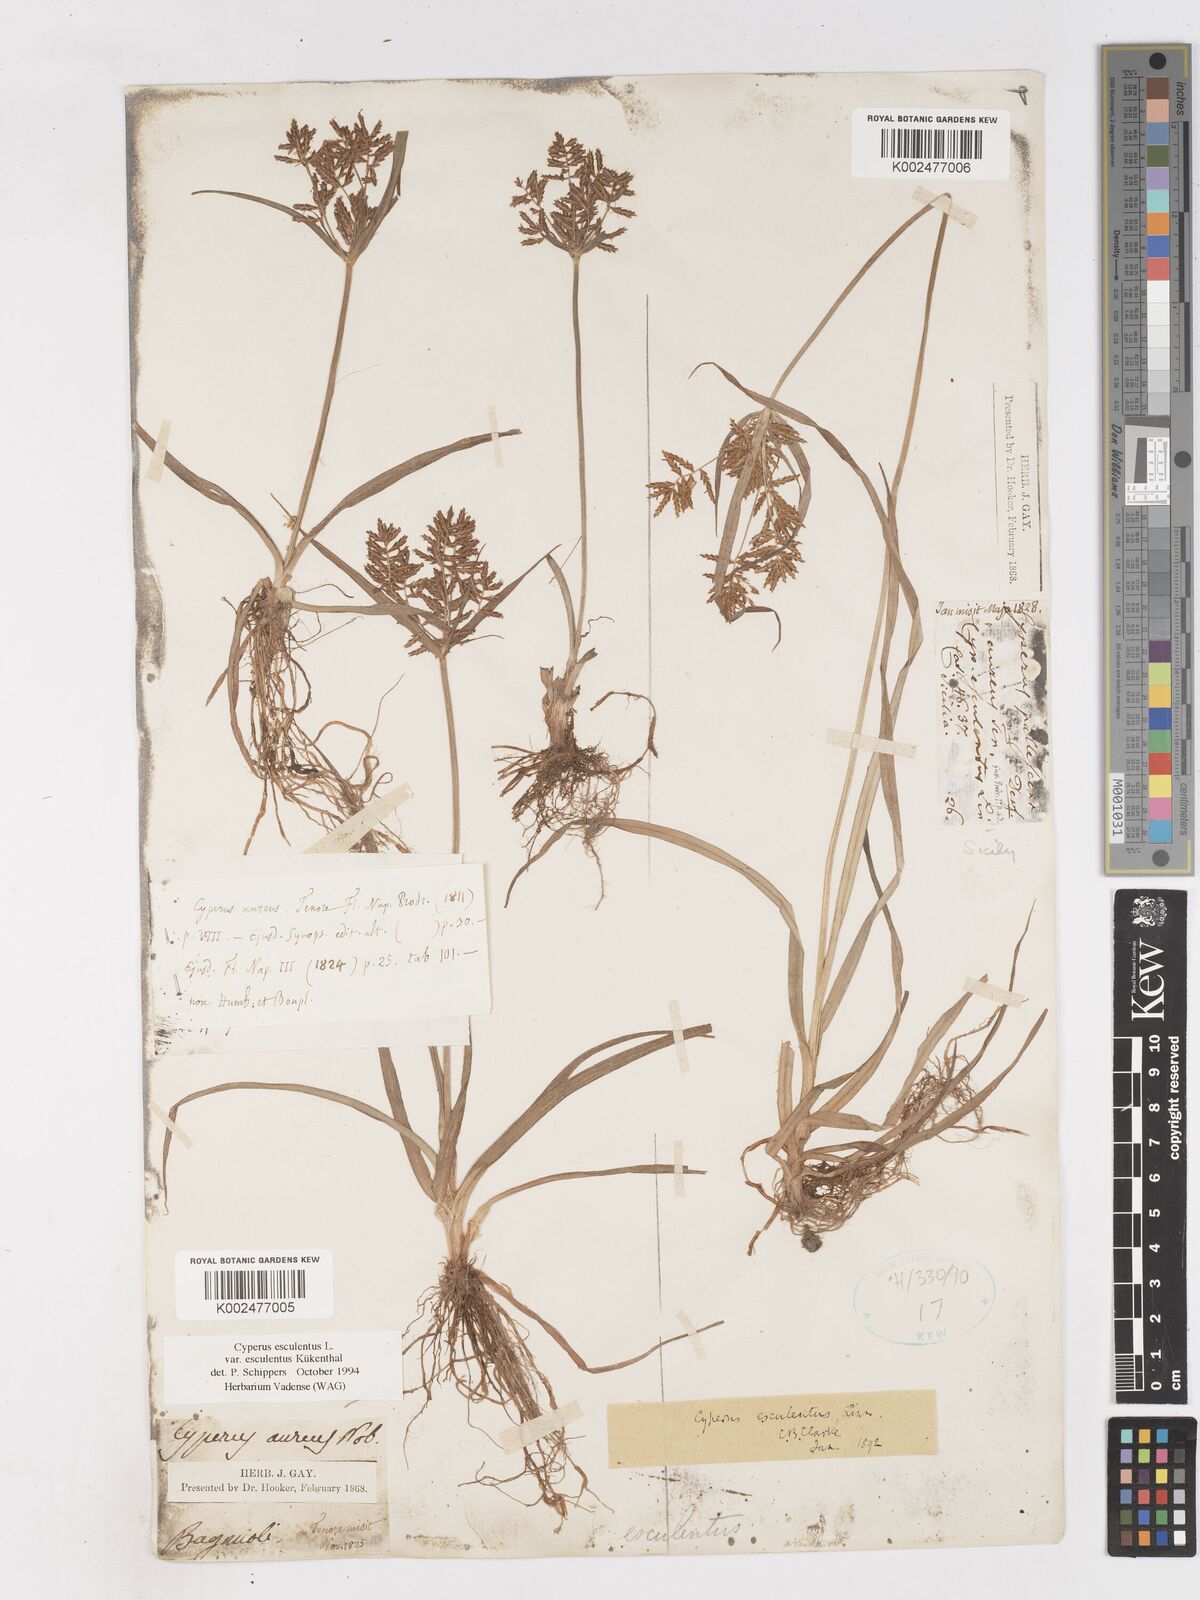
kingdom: Plantae
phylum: Tracheophyta
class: Liliopsida
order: Poales
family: Cyperaceae
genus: Cyperus
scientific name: Cyperus esculentus
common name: Yellow nutsedge
